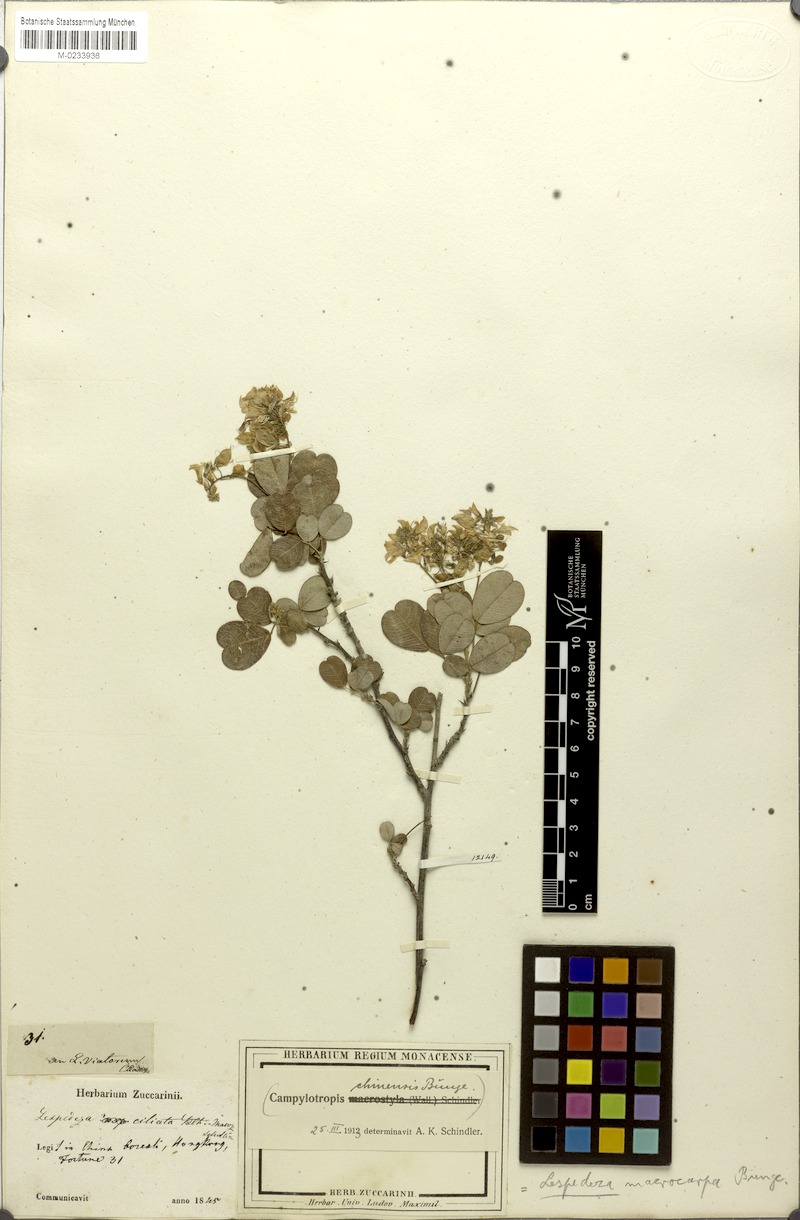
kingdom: Plantae
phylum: Tracheophyta
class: Magnoliopsida
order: Fabales
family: Fabaceae
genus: Campylotropis
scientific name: Campylotropis macrocarpa
